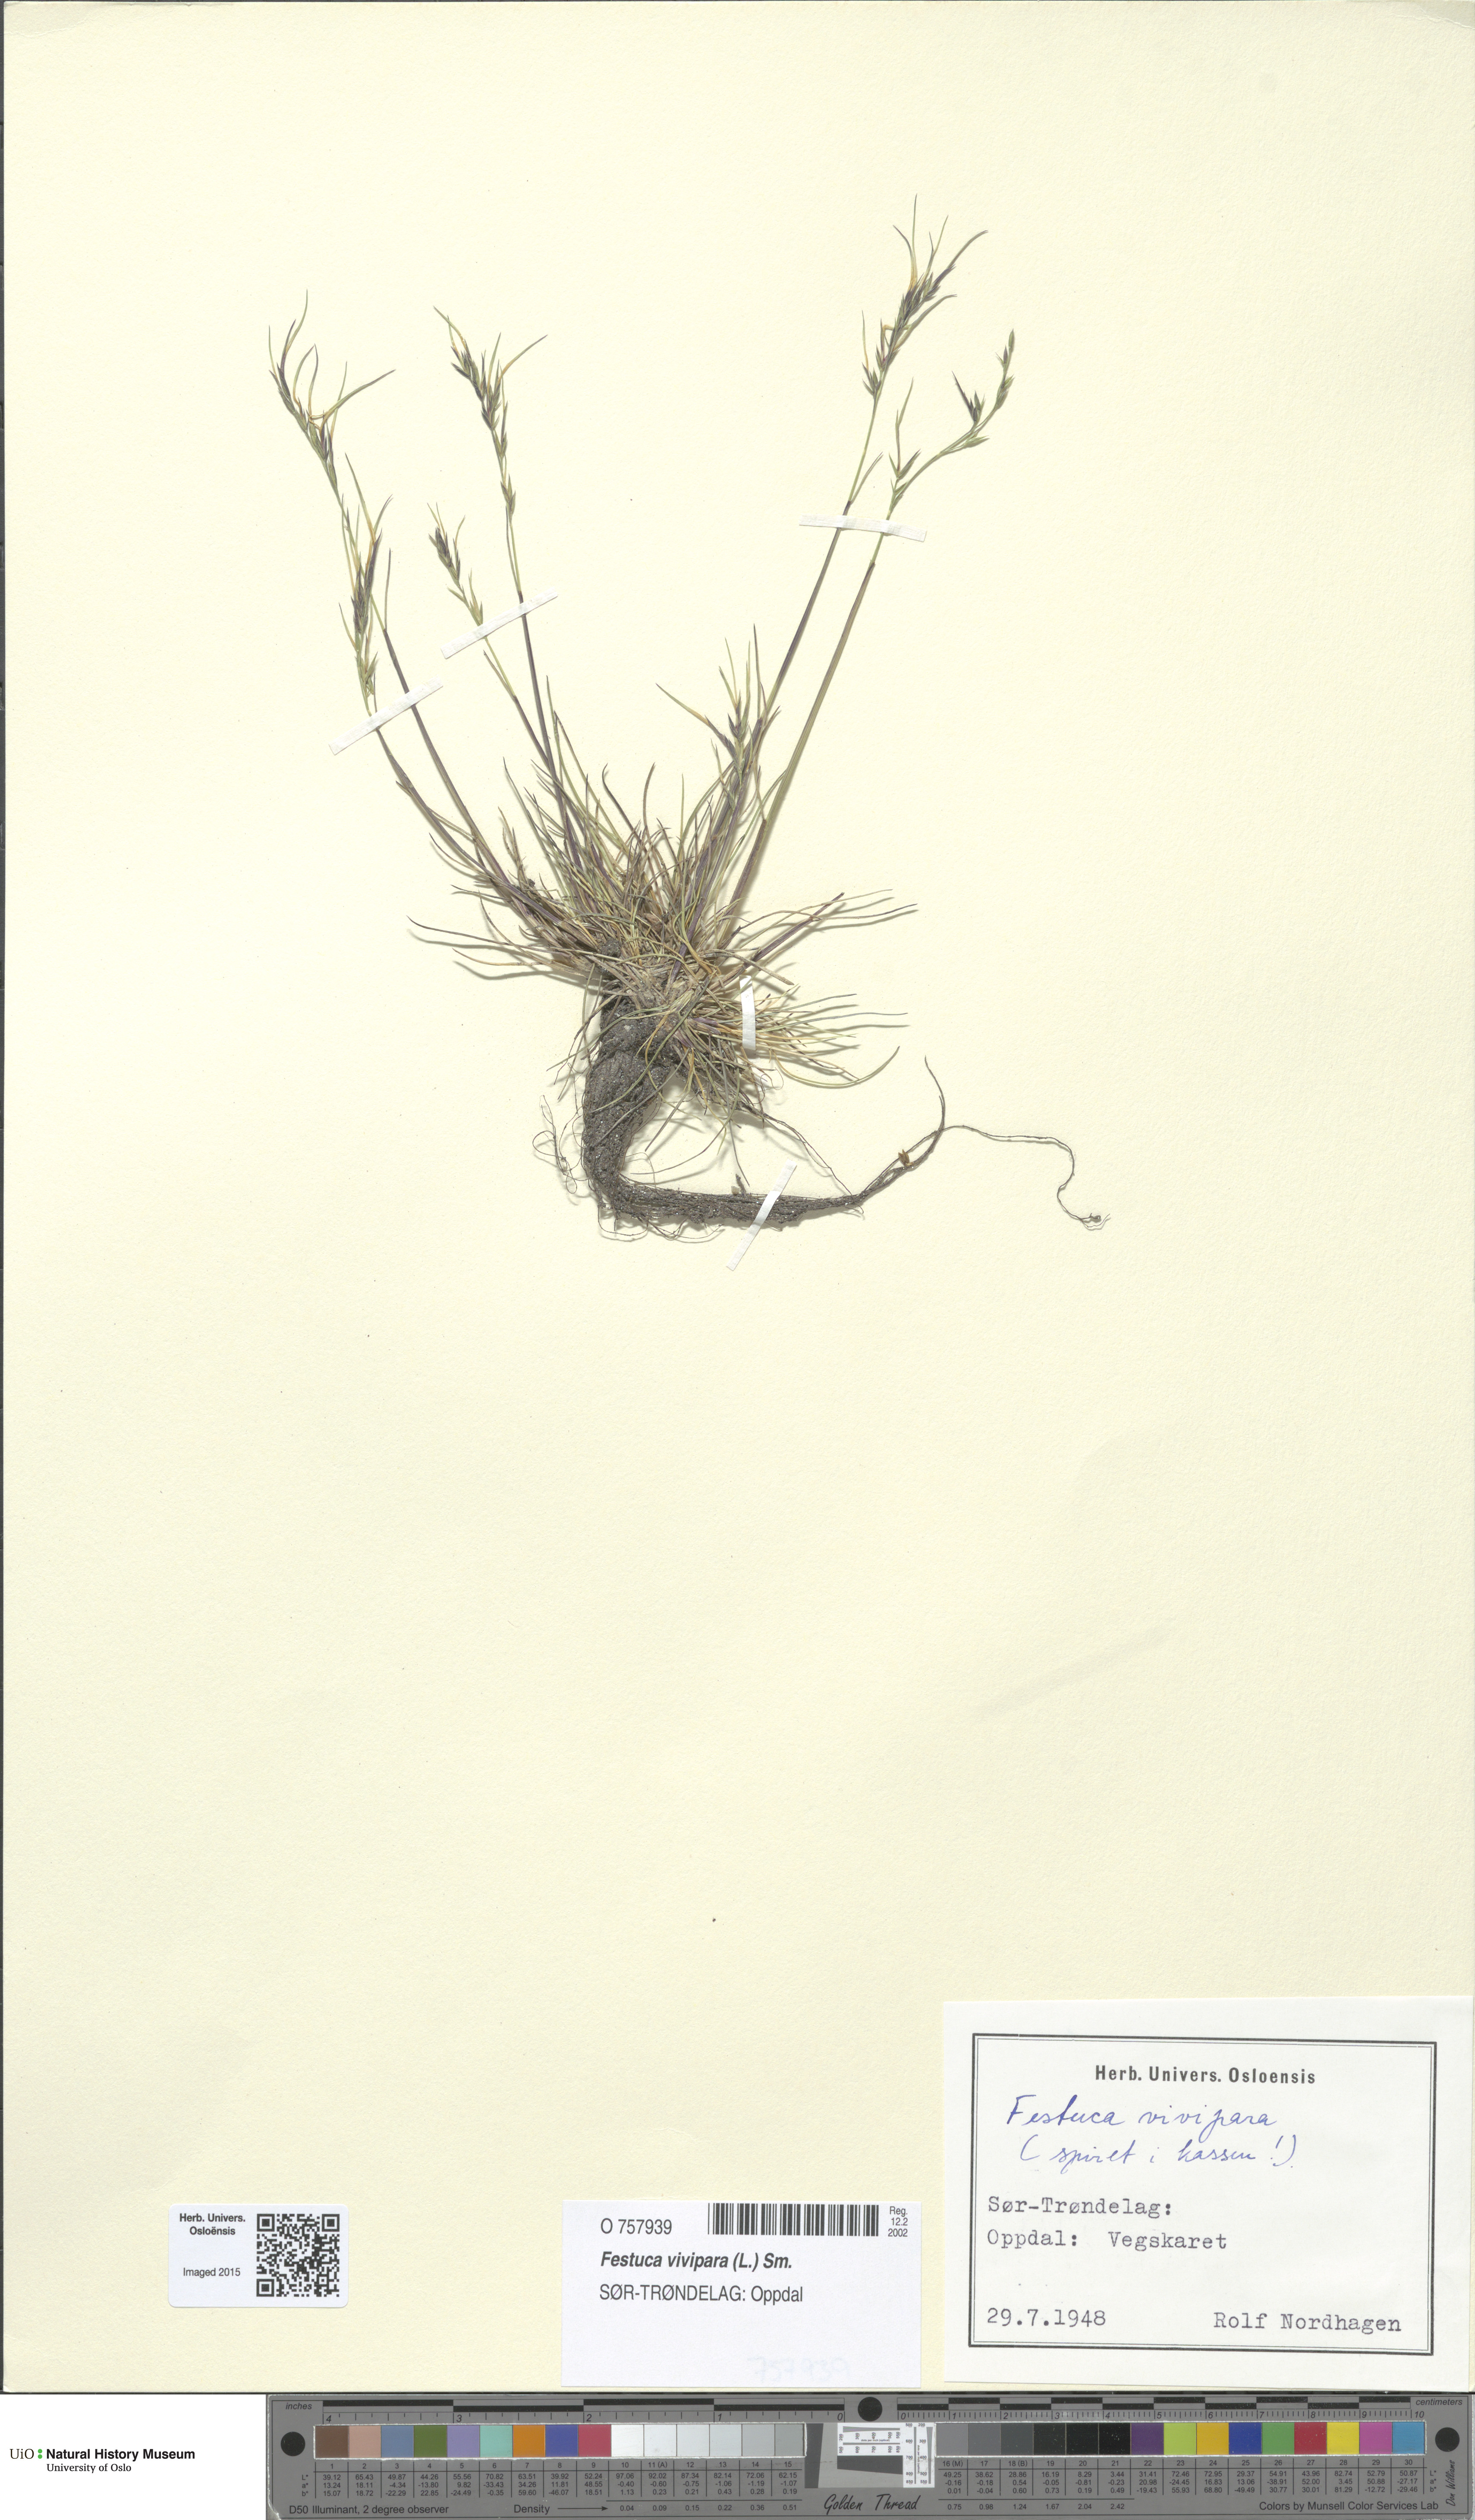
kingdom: Plantae
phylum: Tracheophyta
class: Liliopsida
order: Poales
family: Poaceae
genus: Festuca
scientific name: Festuca vivipara
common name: Viviparous sheep's-fescue
